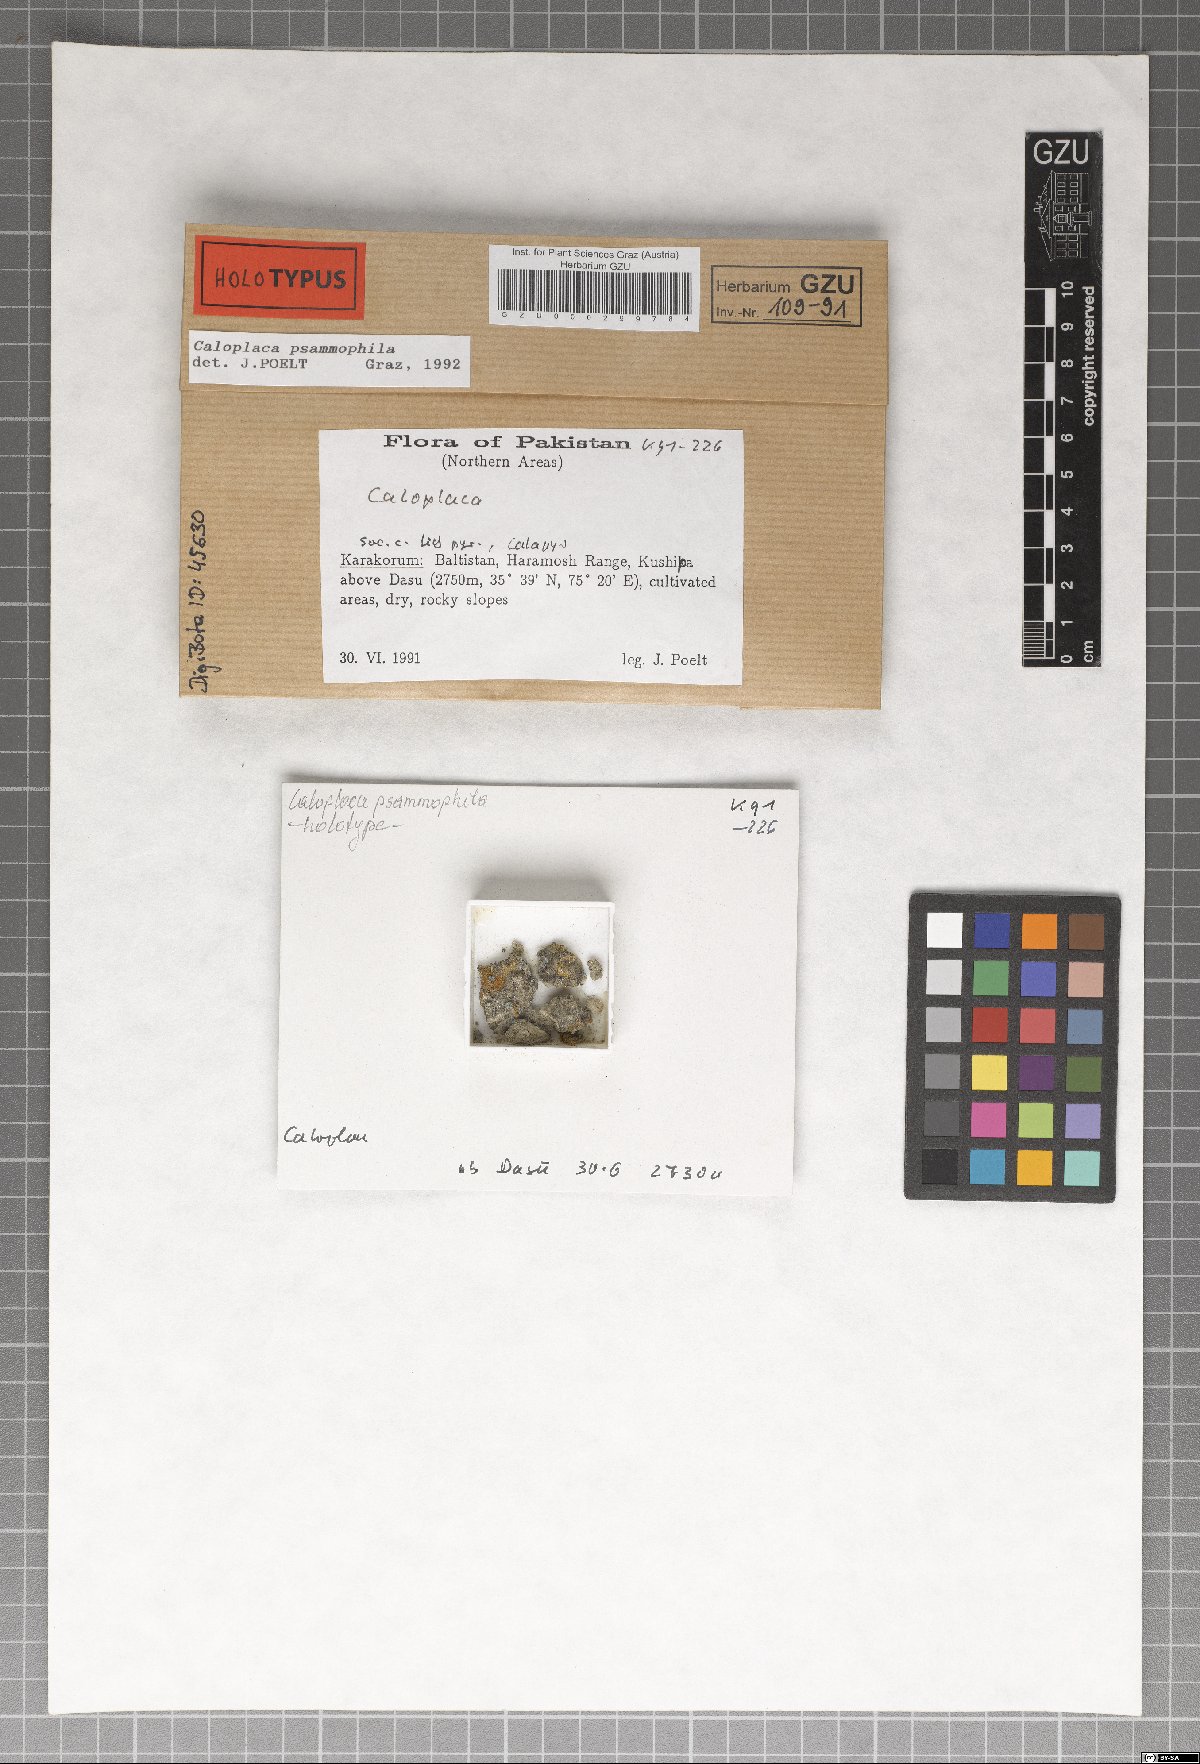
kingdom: Fungi
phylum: Ascomycota
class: Lecanoromycetes
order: Teloschistales
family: Teloschistaceae
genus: Caloplaca
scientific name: Caloplaca
